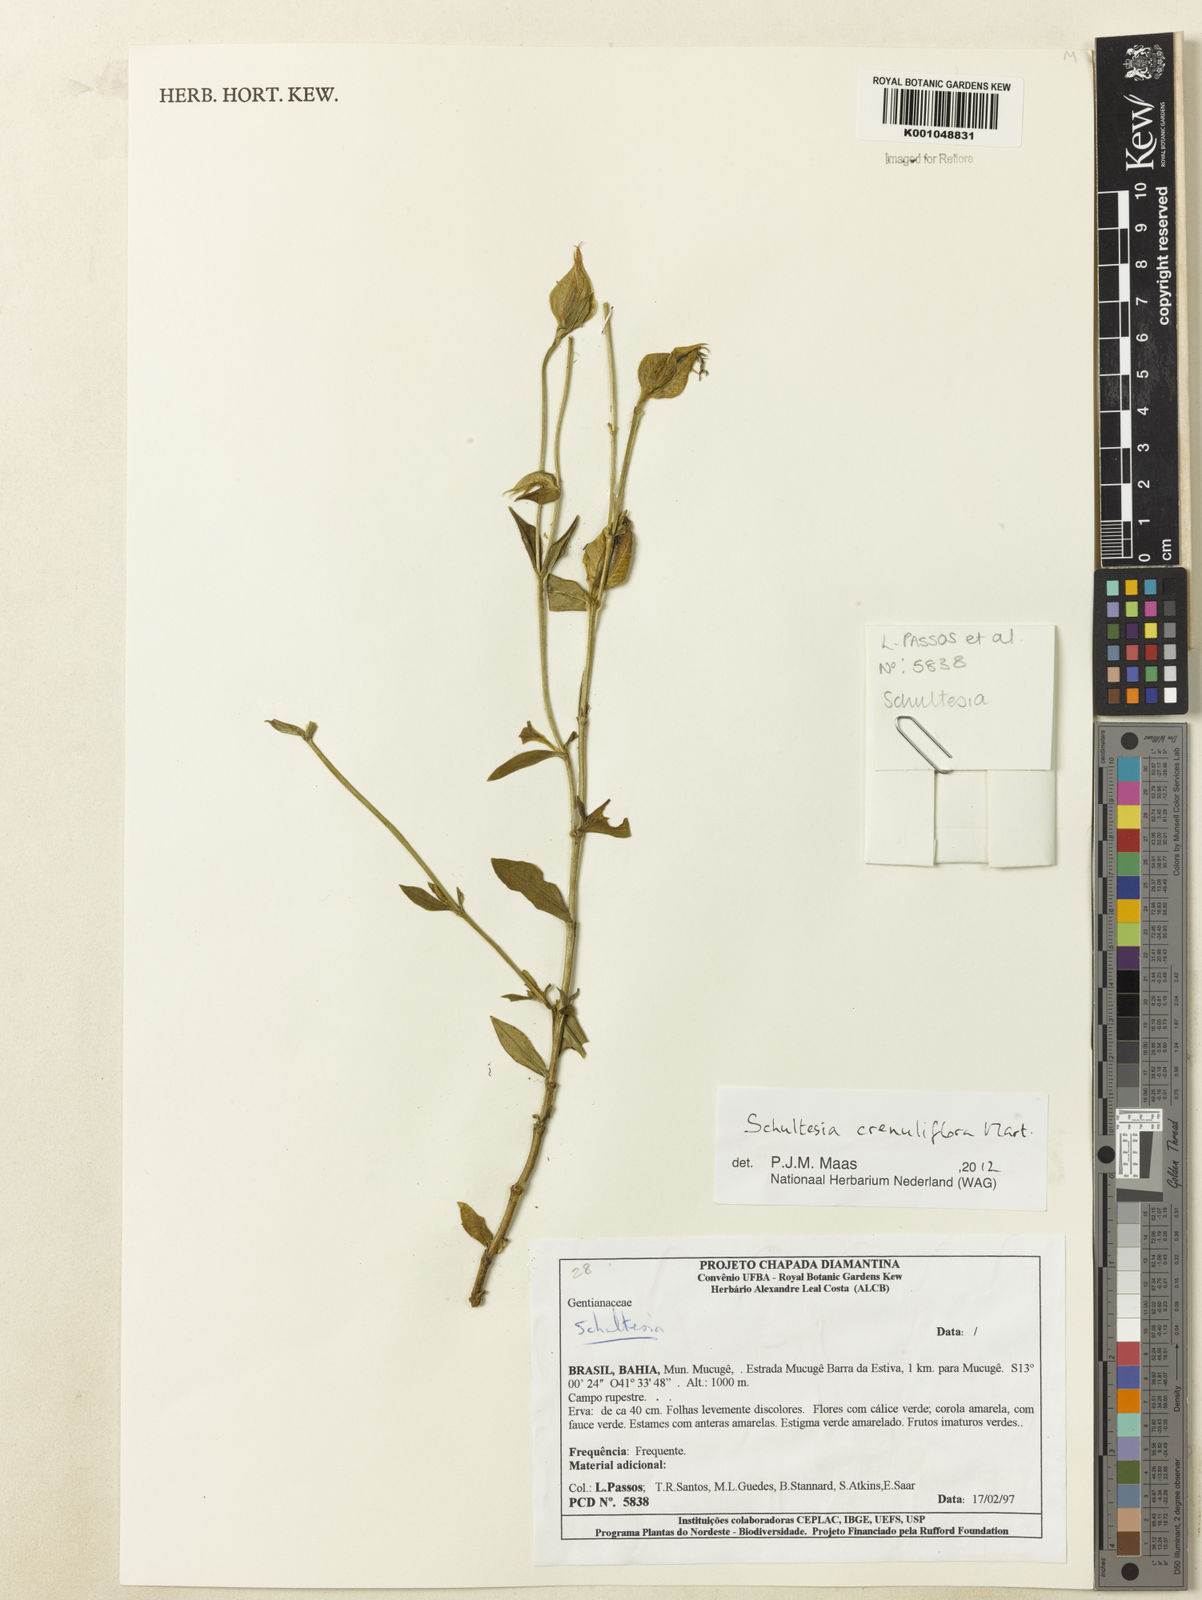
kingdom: Plantae
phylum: Tracheophyta
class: Magnoliopsida
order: Gentianales
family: Gentianaceae
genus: Schultesia
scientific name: Schultesia crenuliflora
